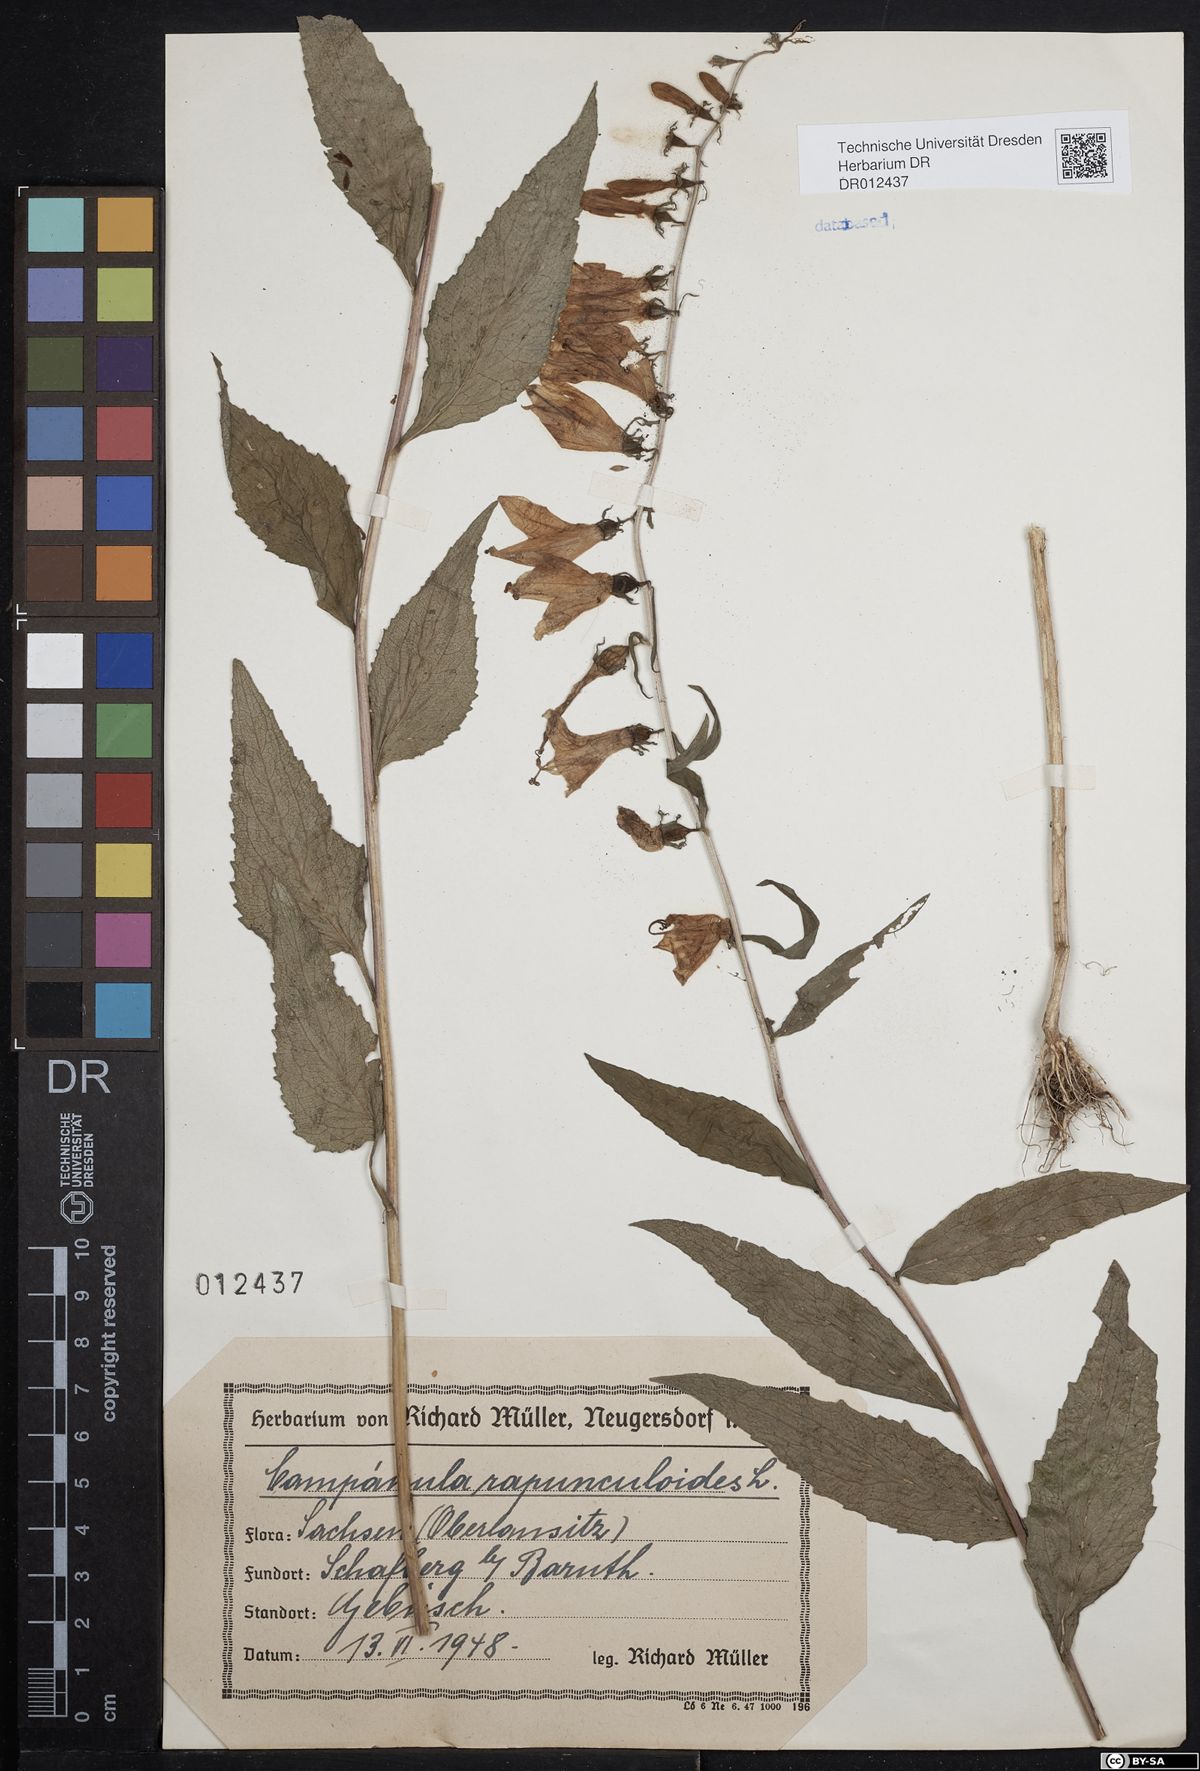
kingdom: Plantae
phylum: Tracheophyta
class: Magnoliopsida
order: Asterales
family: Campanulaceae
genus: Campanula
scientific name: Campanula rapunculoides
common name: Creeping bellflower
